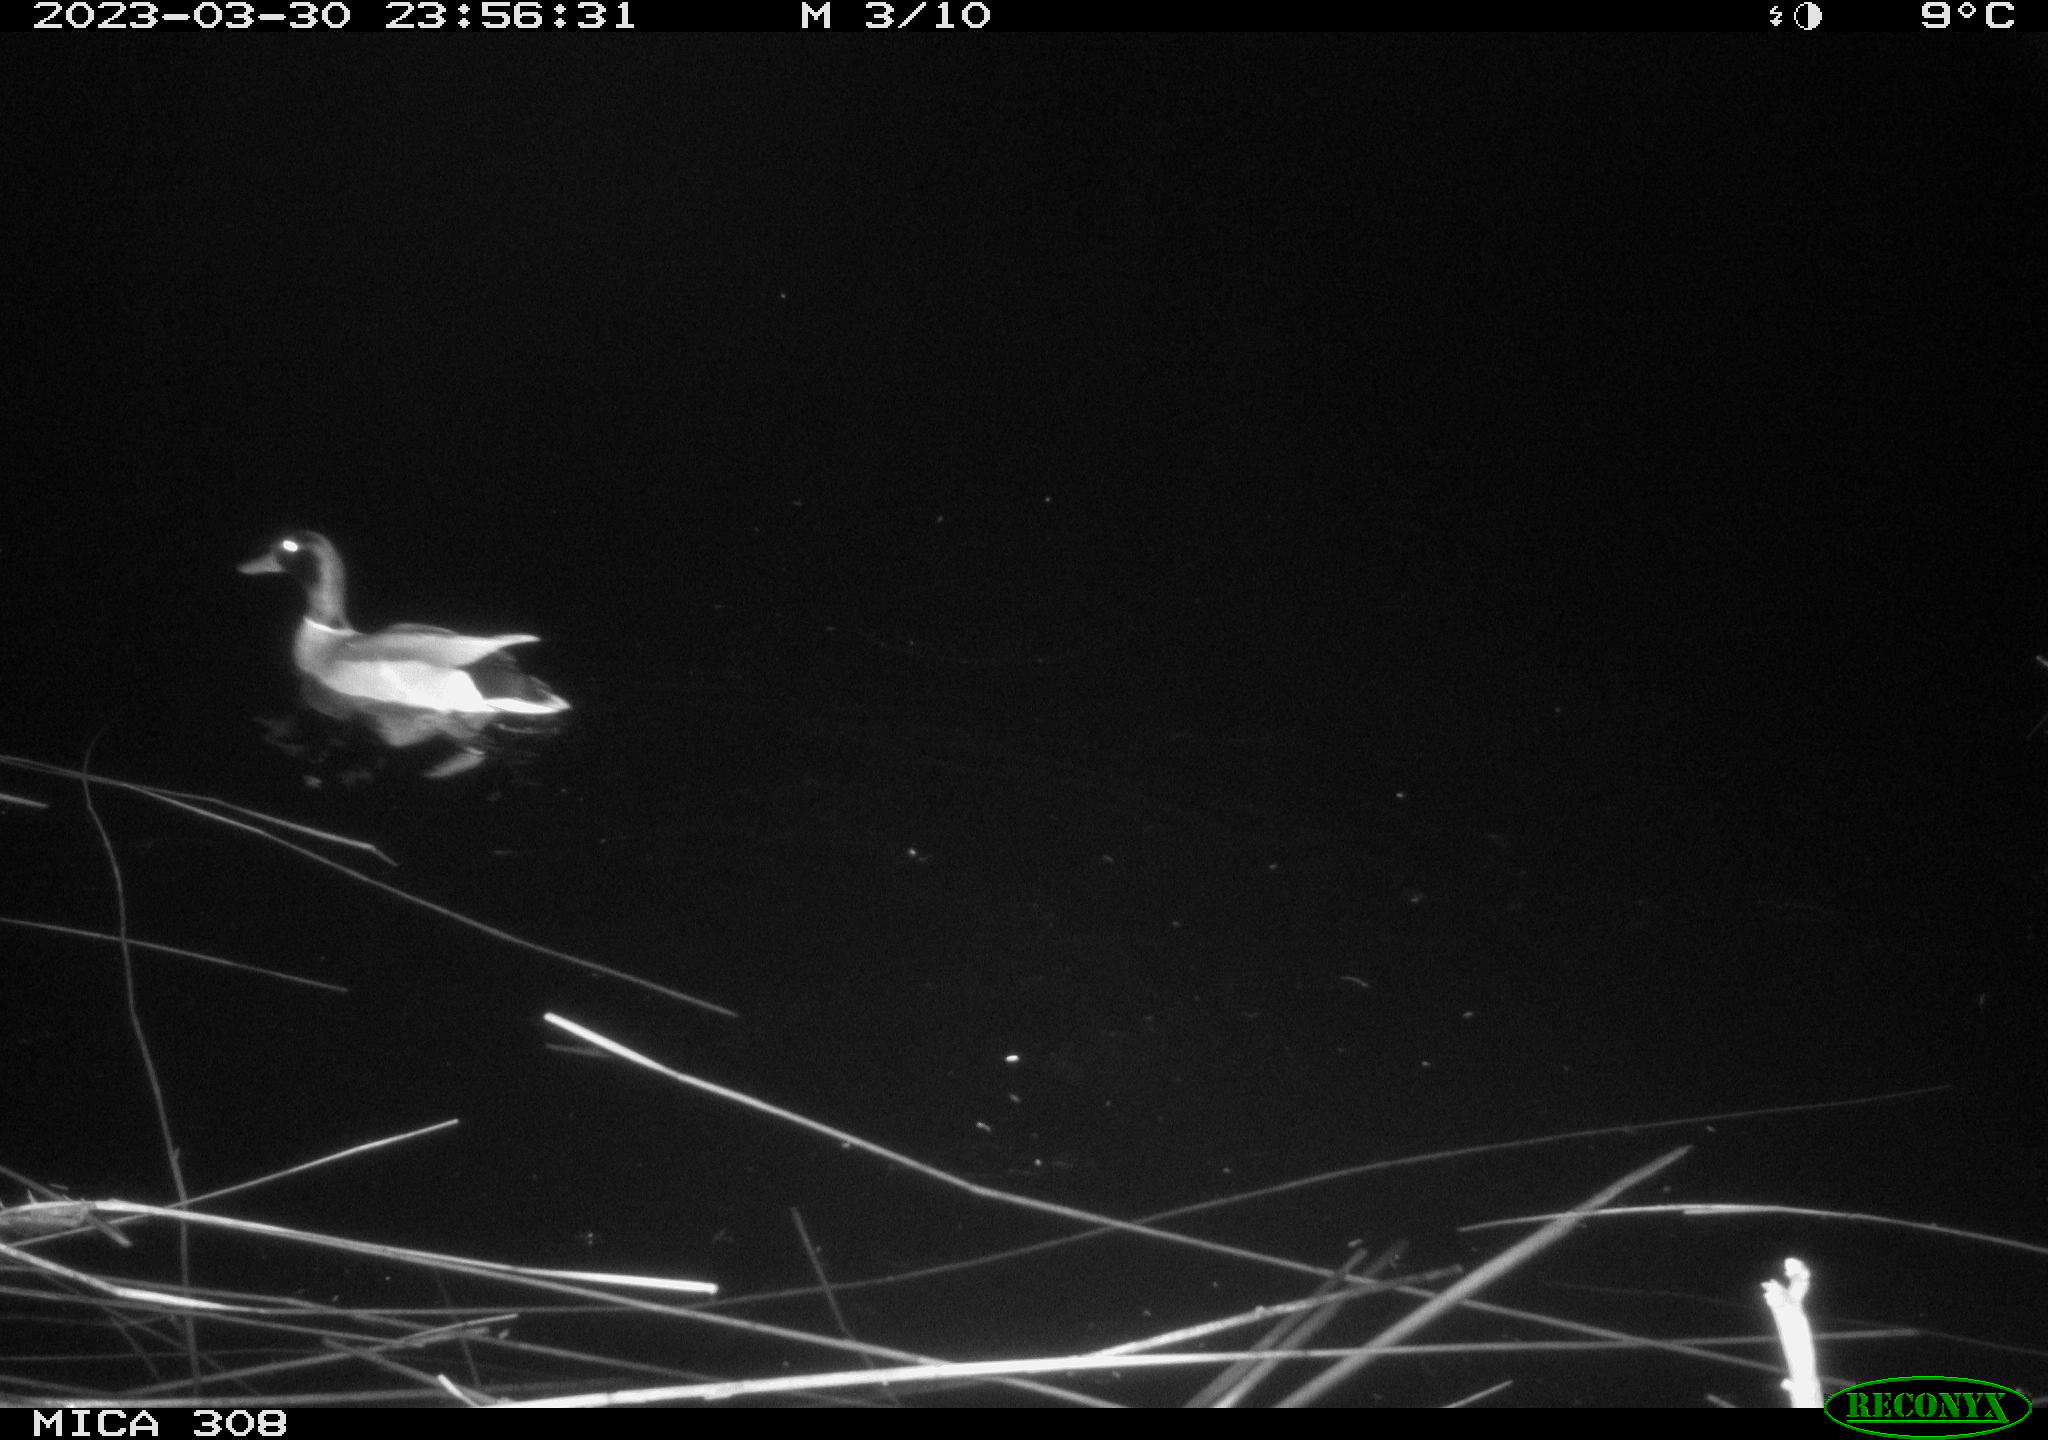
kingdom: Animalia
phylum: Chordata
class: Aves
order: Anseriformes
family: Anatidae
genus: Anas
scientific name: Anas
